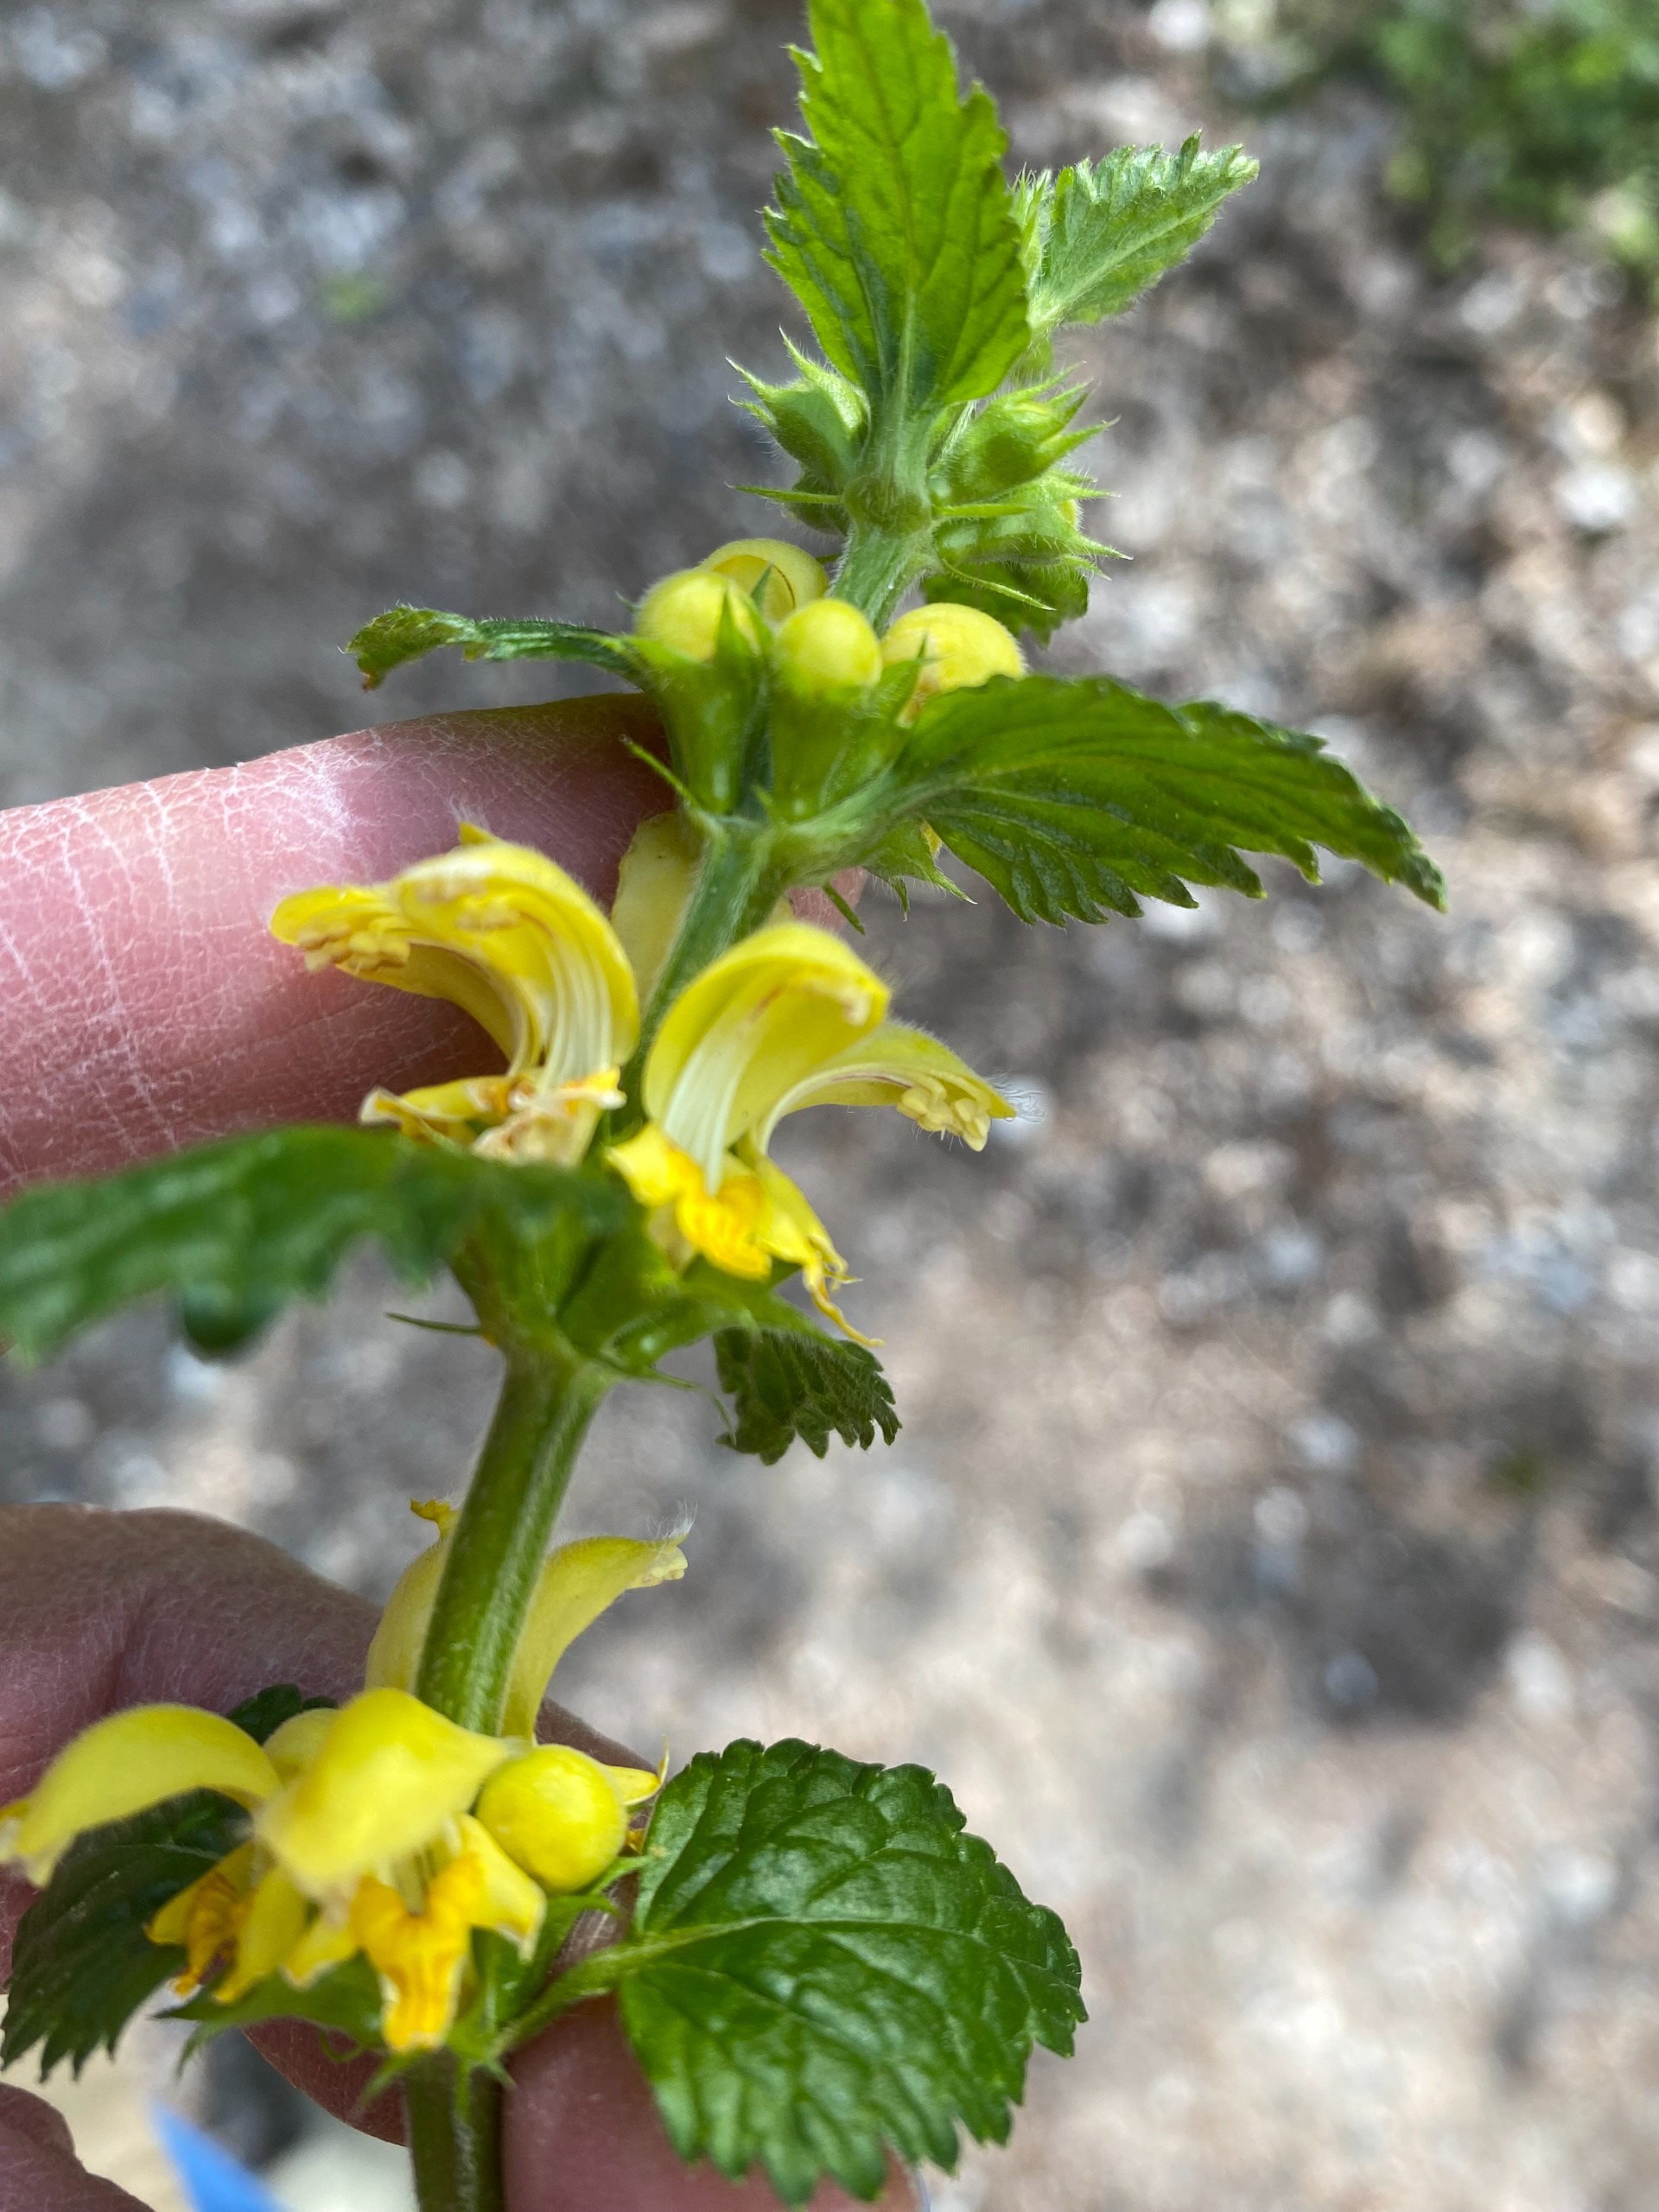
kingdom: Plantae
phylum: Tracheophyta
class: Magnoliopsida
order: Lamiales
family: Lamiaceae
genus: Lamium
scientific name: Lamium galeobdolon
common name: Almindelig guldnælde
